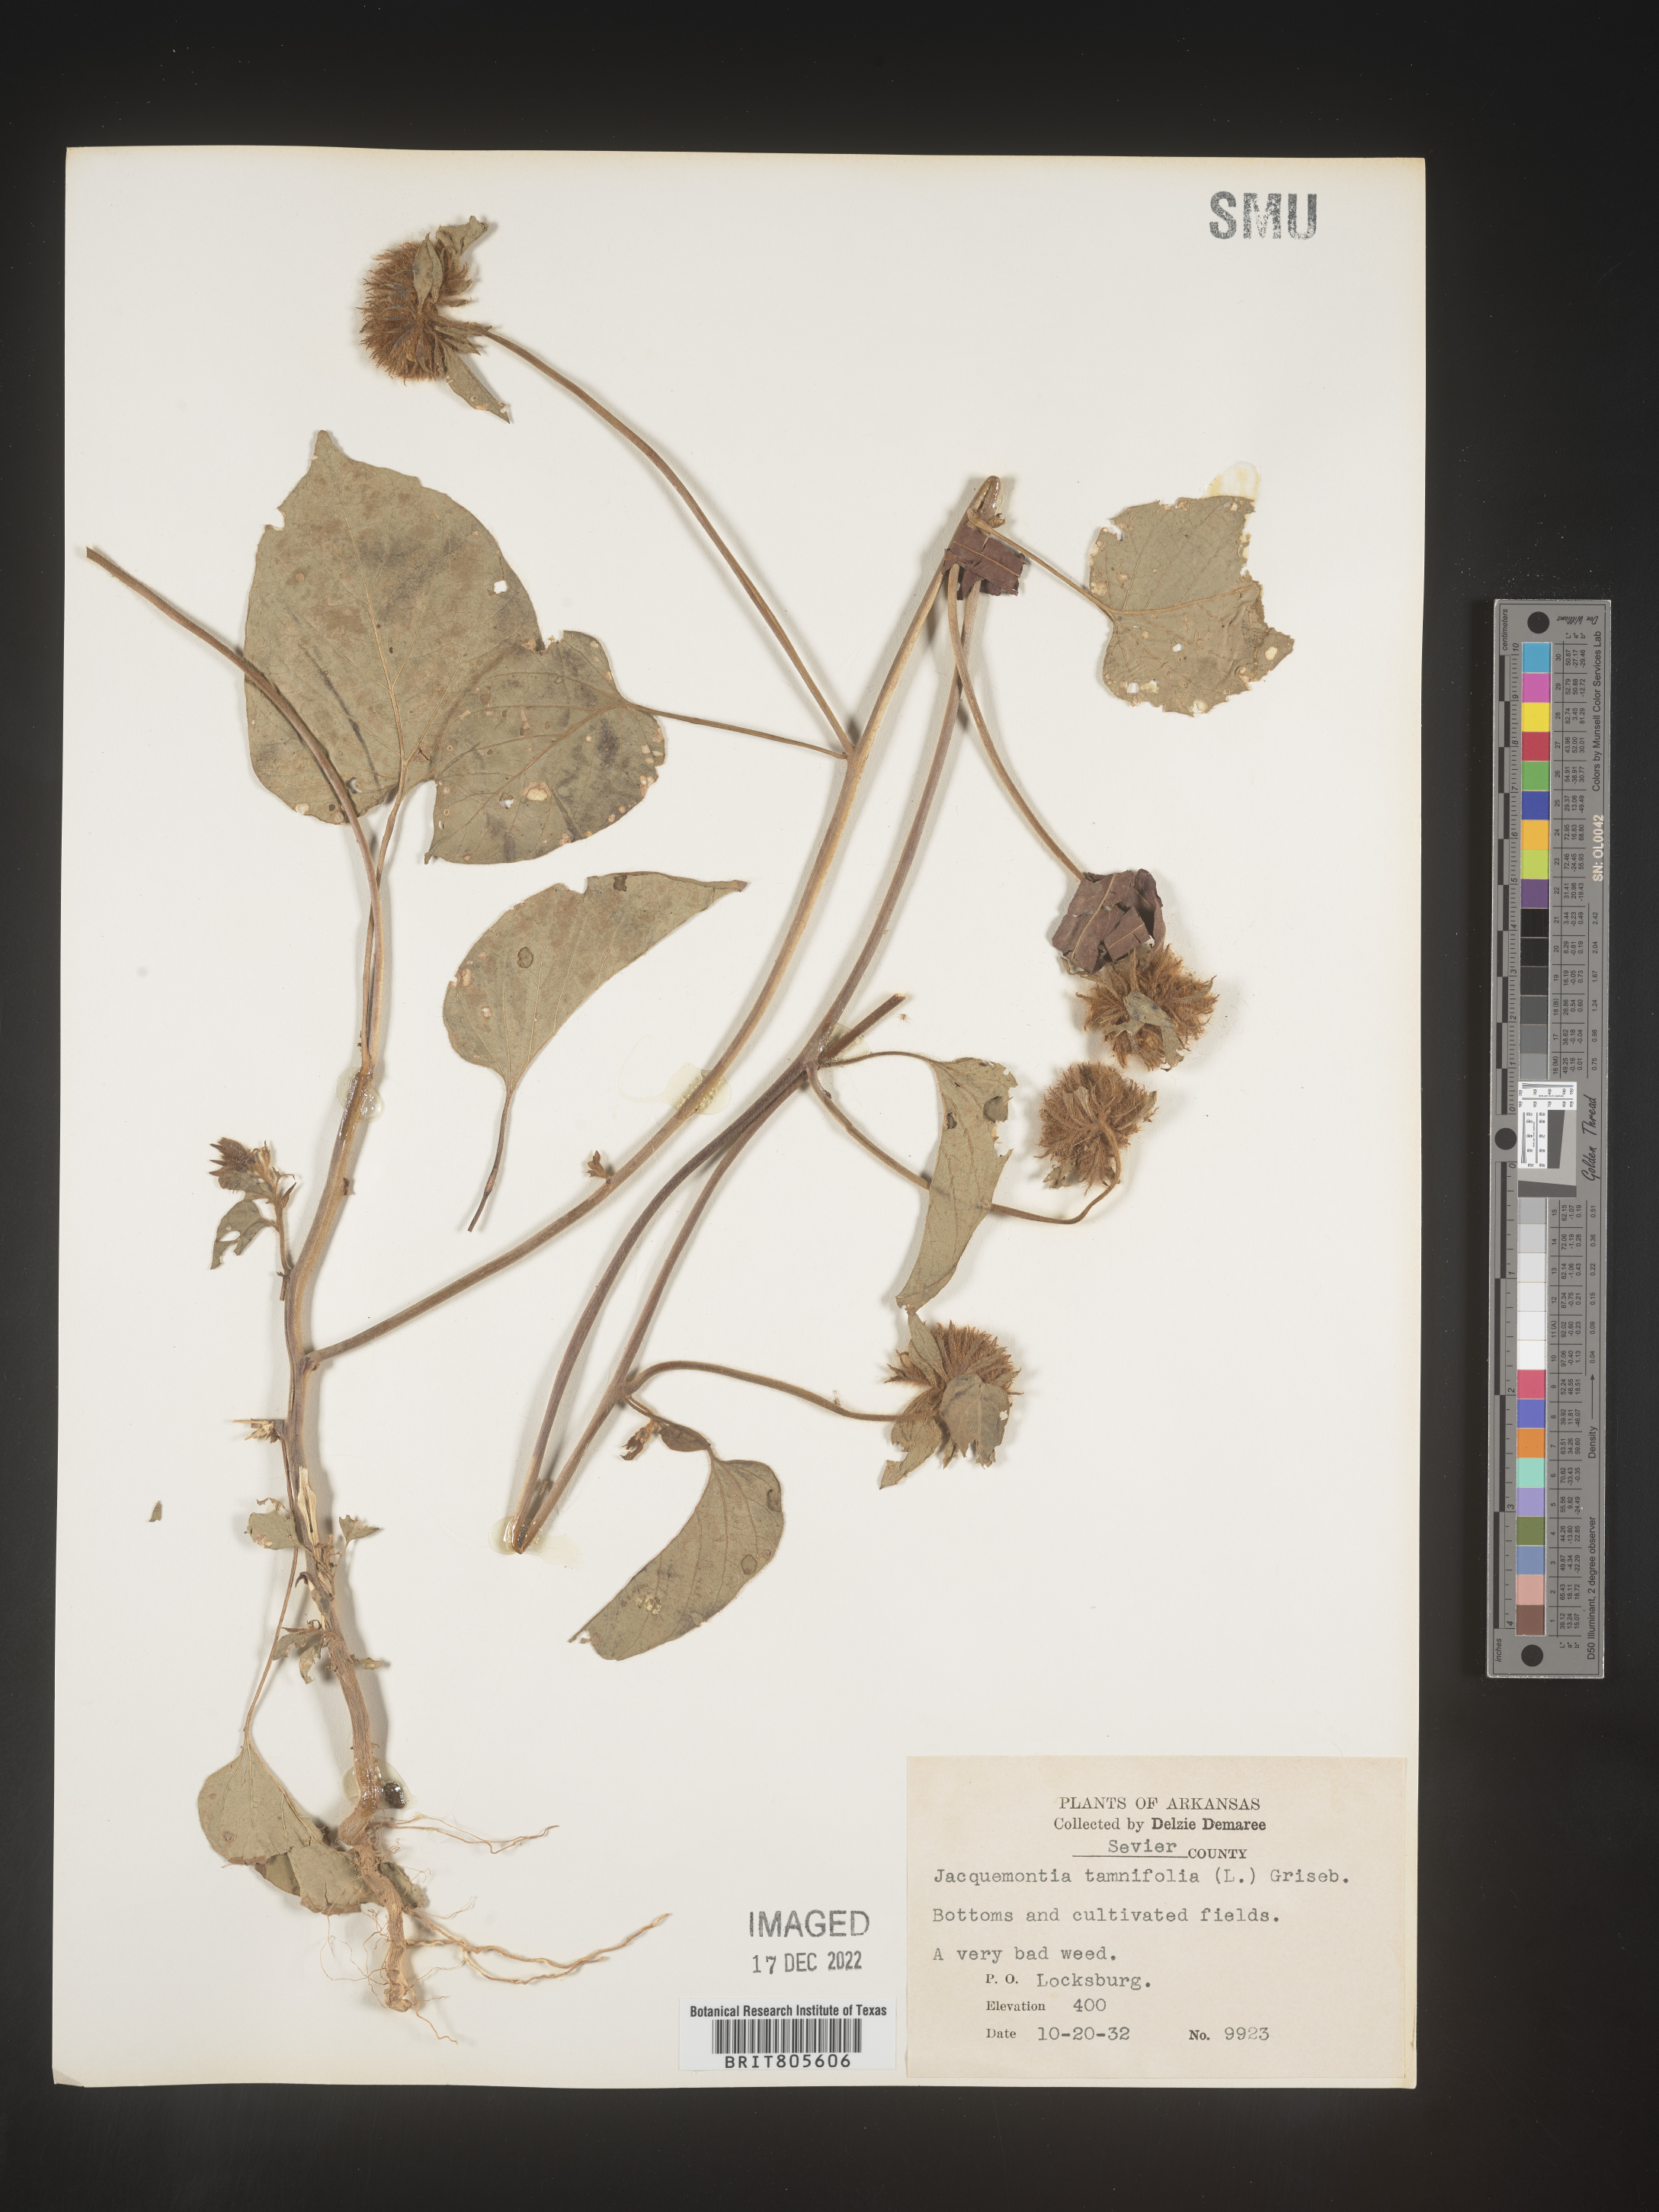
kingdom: Plantae
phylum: Tracheophyta
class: Magnoliopsida
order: Solanales
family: Convolvulaceae
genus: Jacquemontia
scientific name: Jacquemontia tamnifolia
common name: Hairy clustervine
